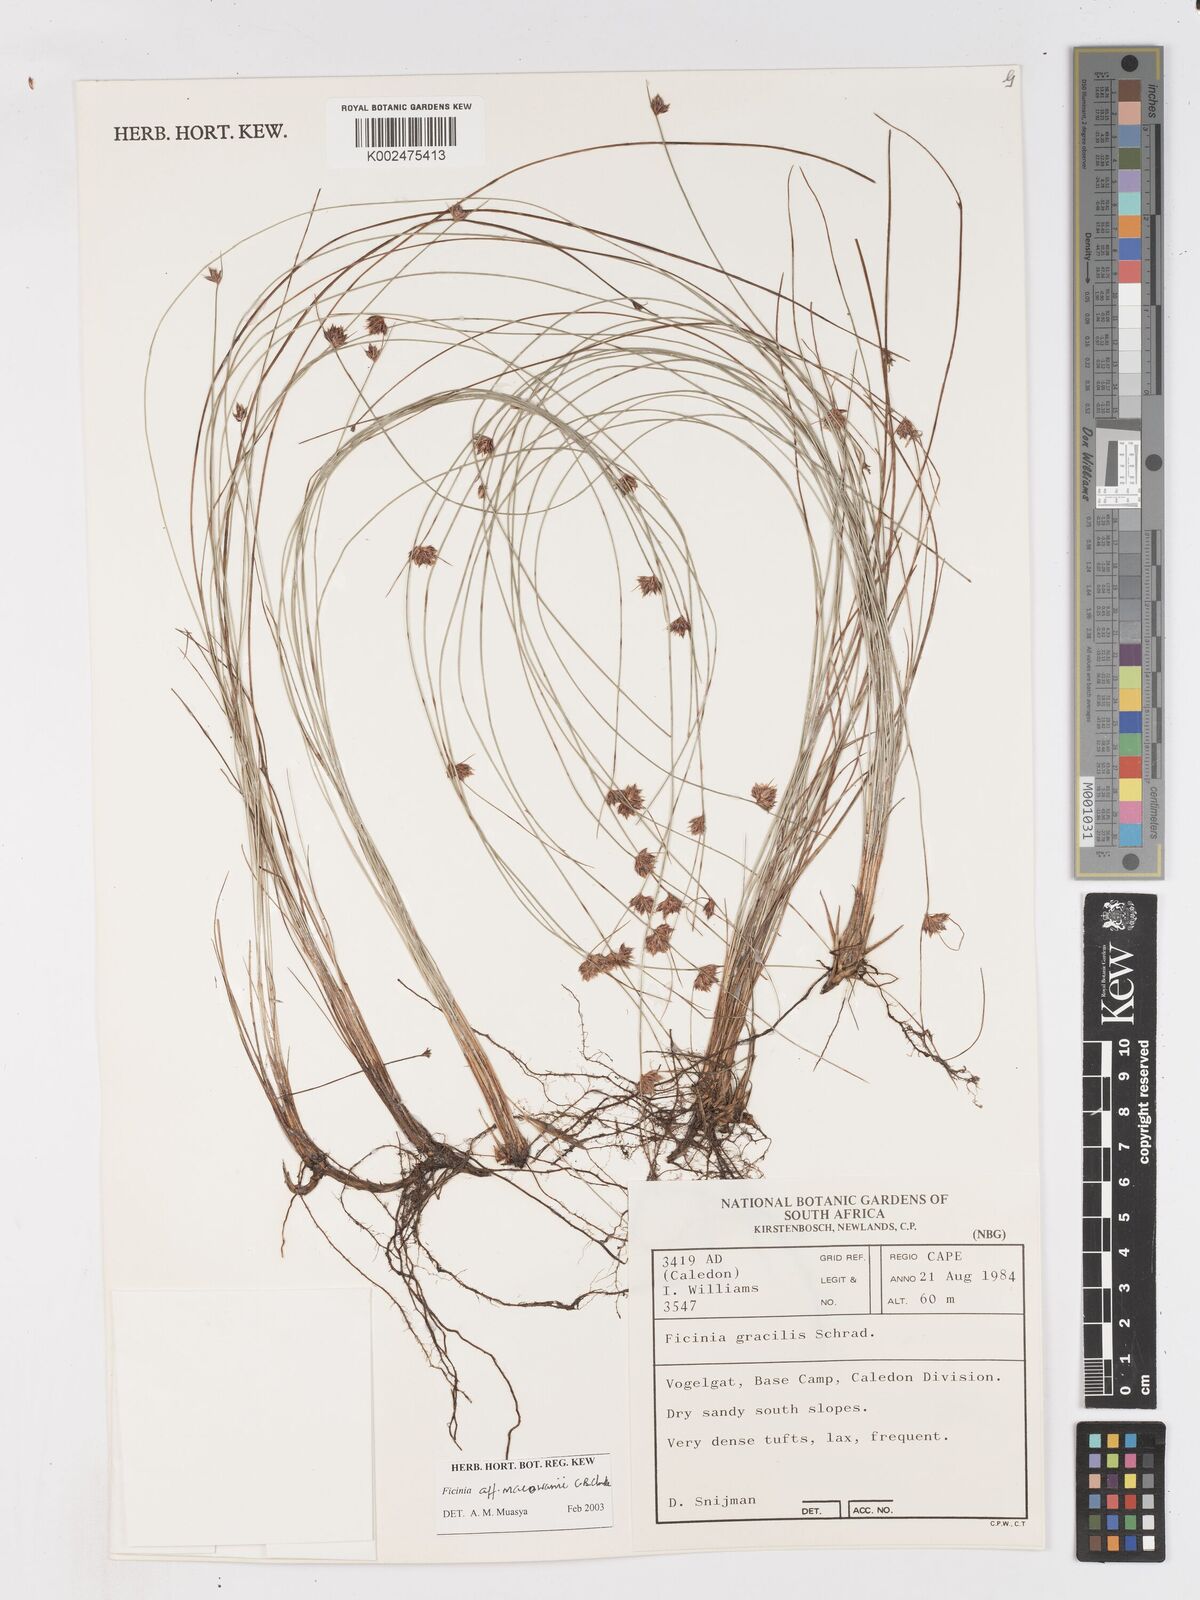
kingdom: Plantae
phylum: Tracheophyta
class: Liliopsida
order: Poales
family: Cyperaceae
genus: Ficinia
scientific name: Ficinia acuminata
